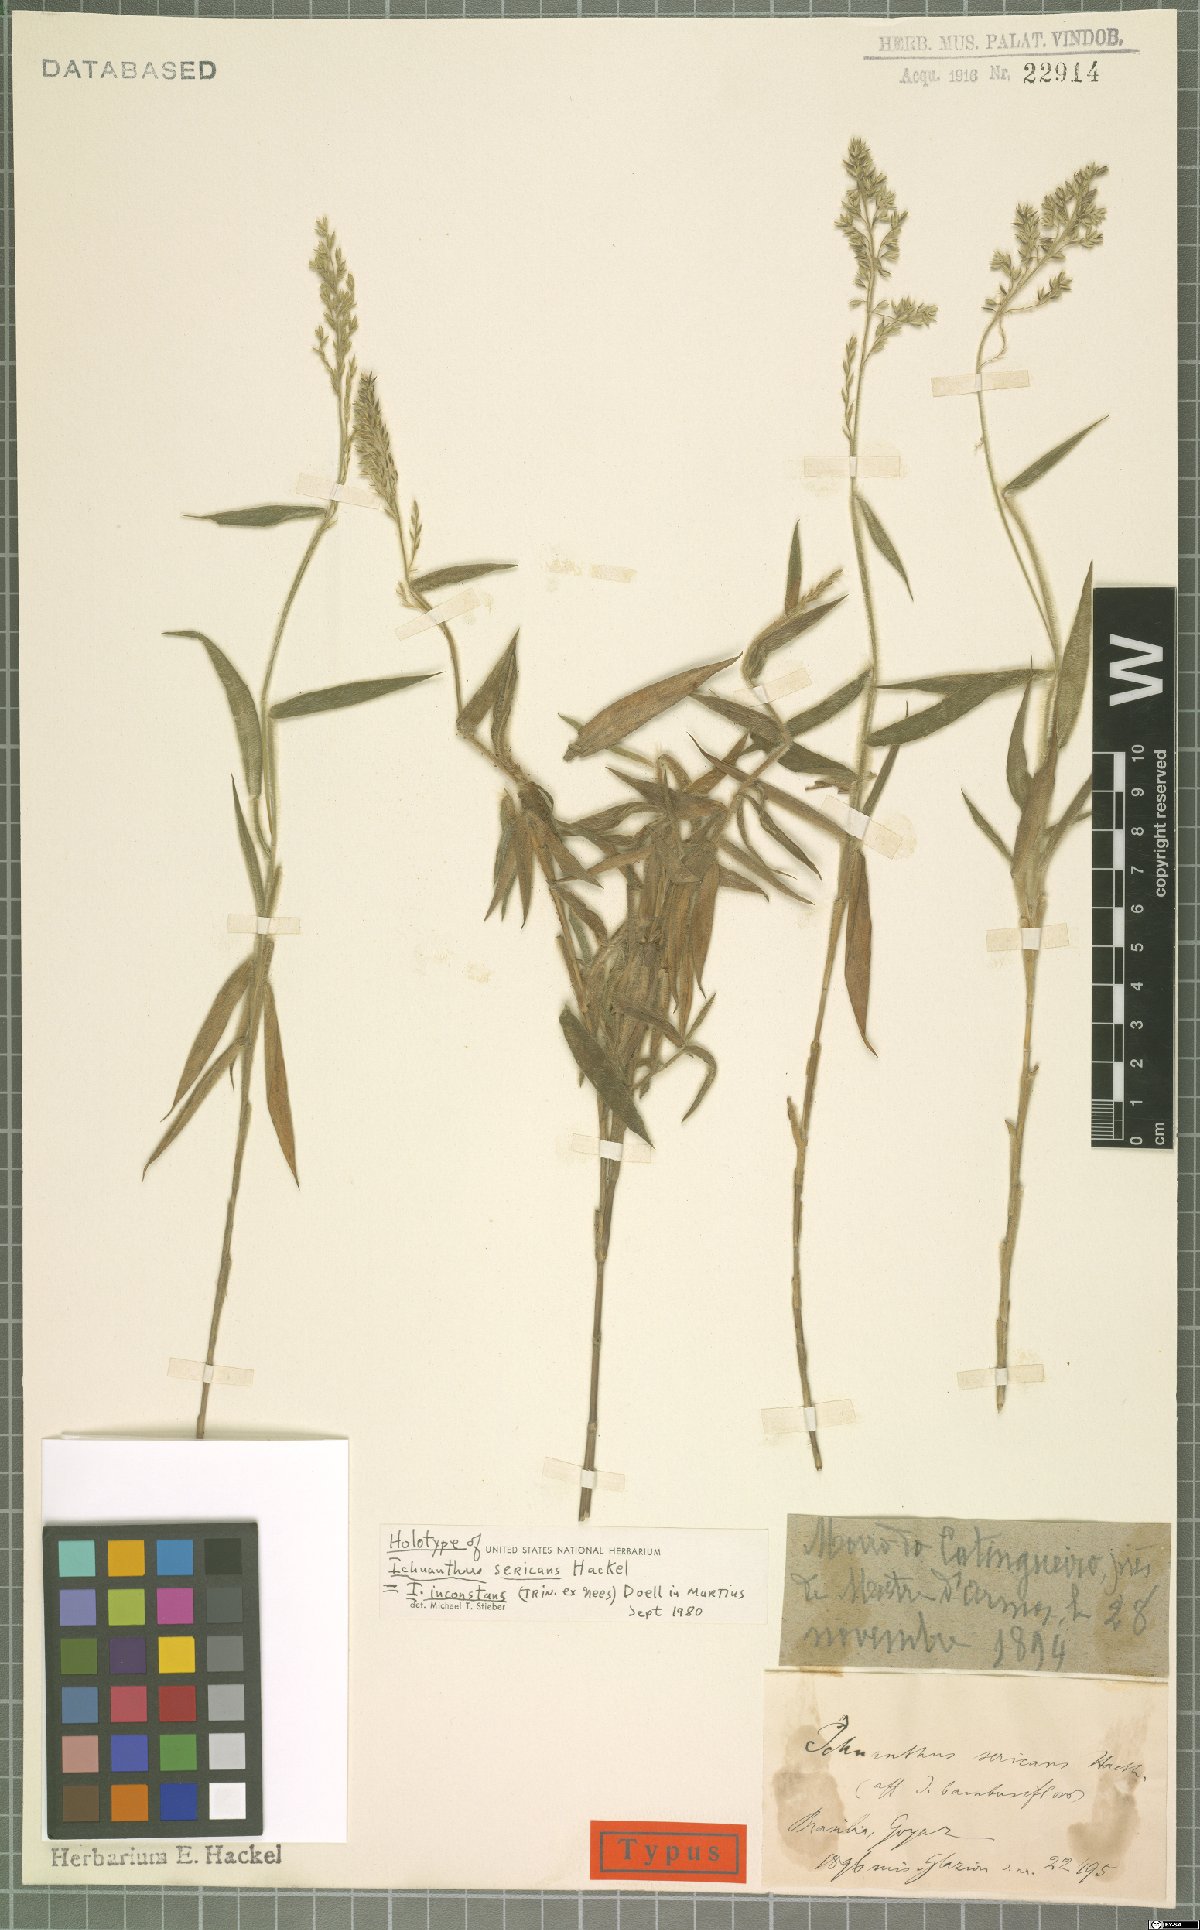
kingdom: Plantae
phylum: Tracheophyta
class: Liliopsida
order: Poales
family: Poaceae
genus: Ichnanthus
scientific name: Ichnanthus inconstans
